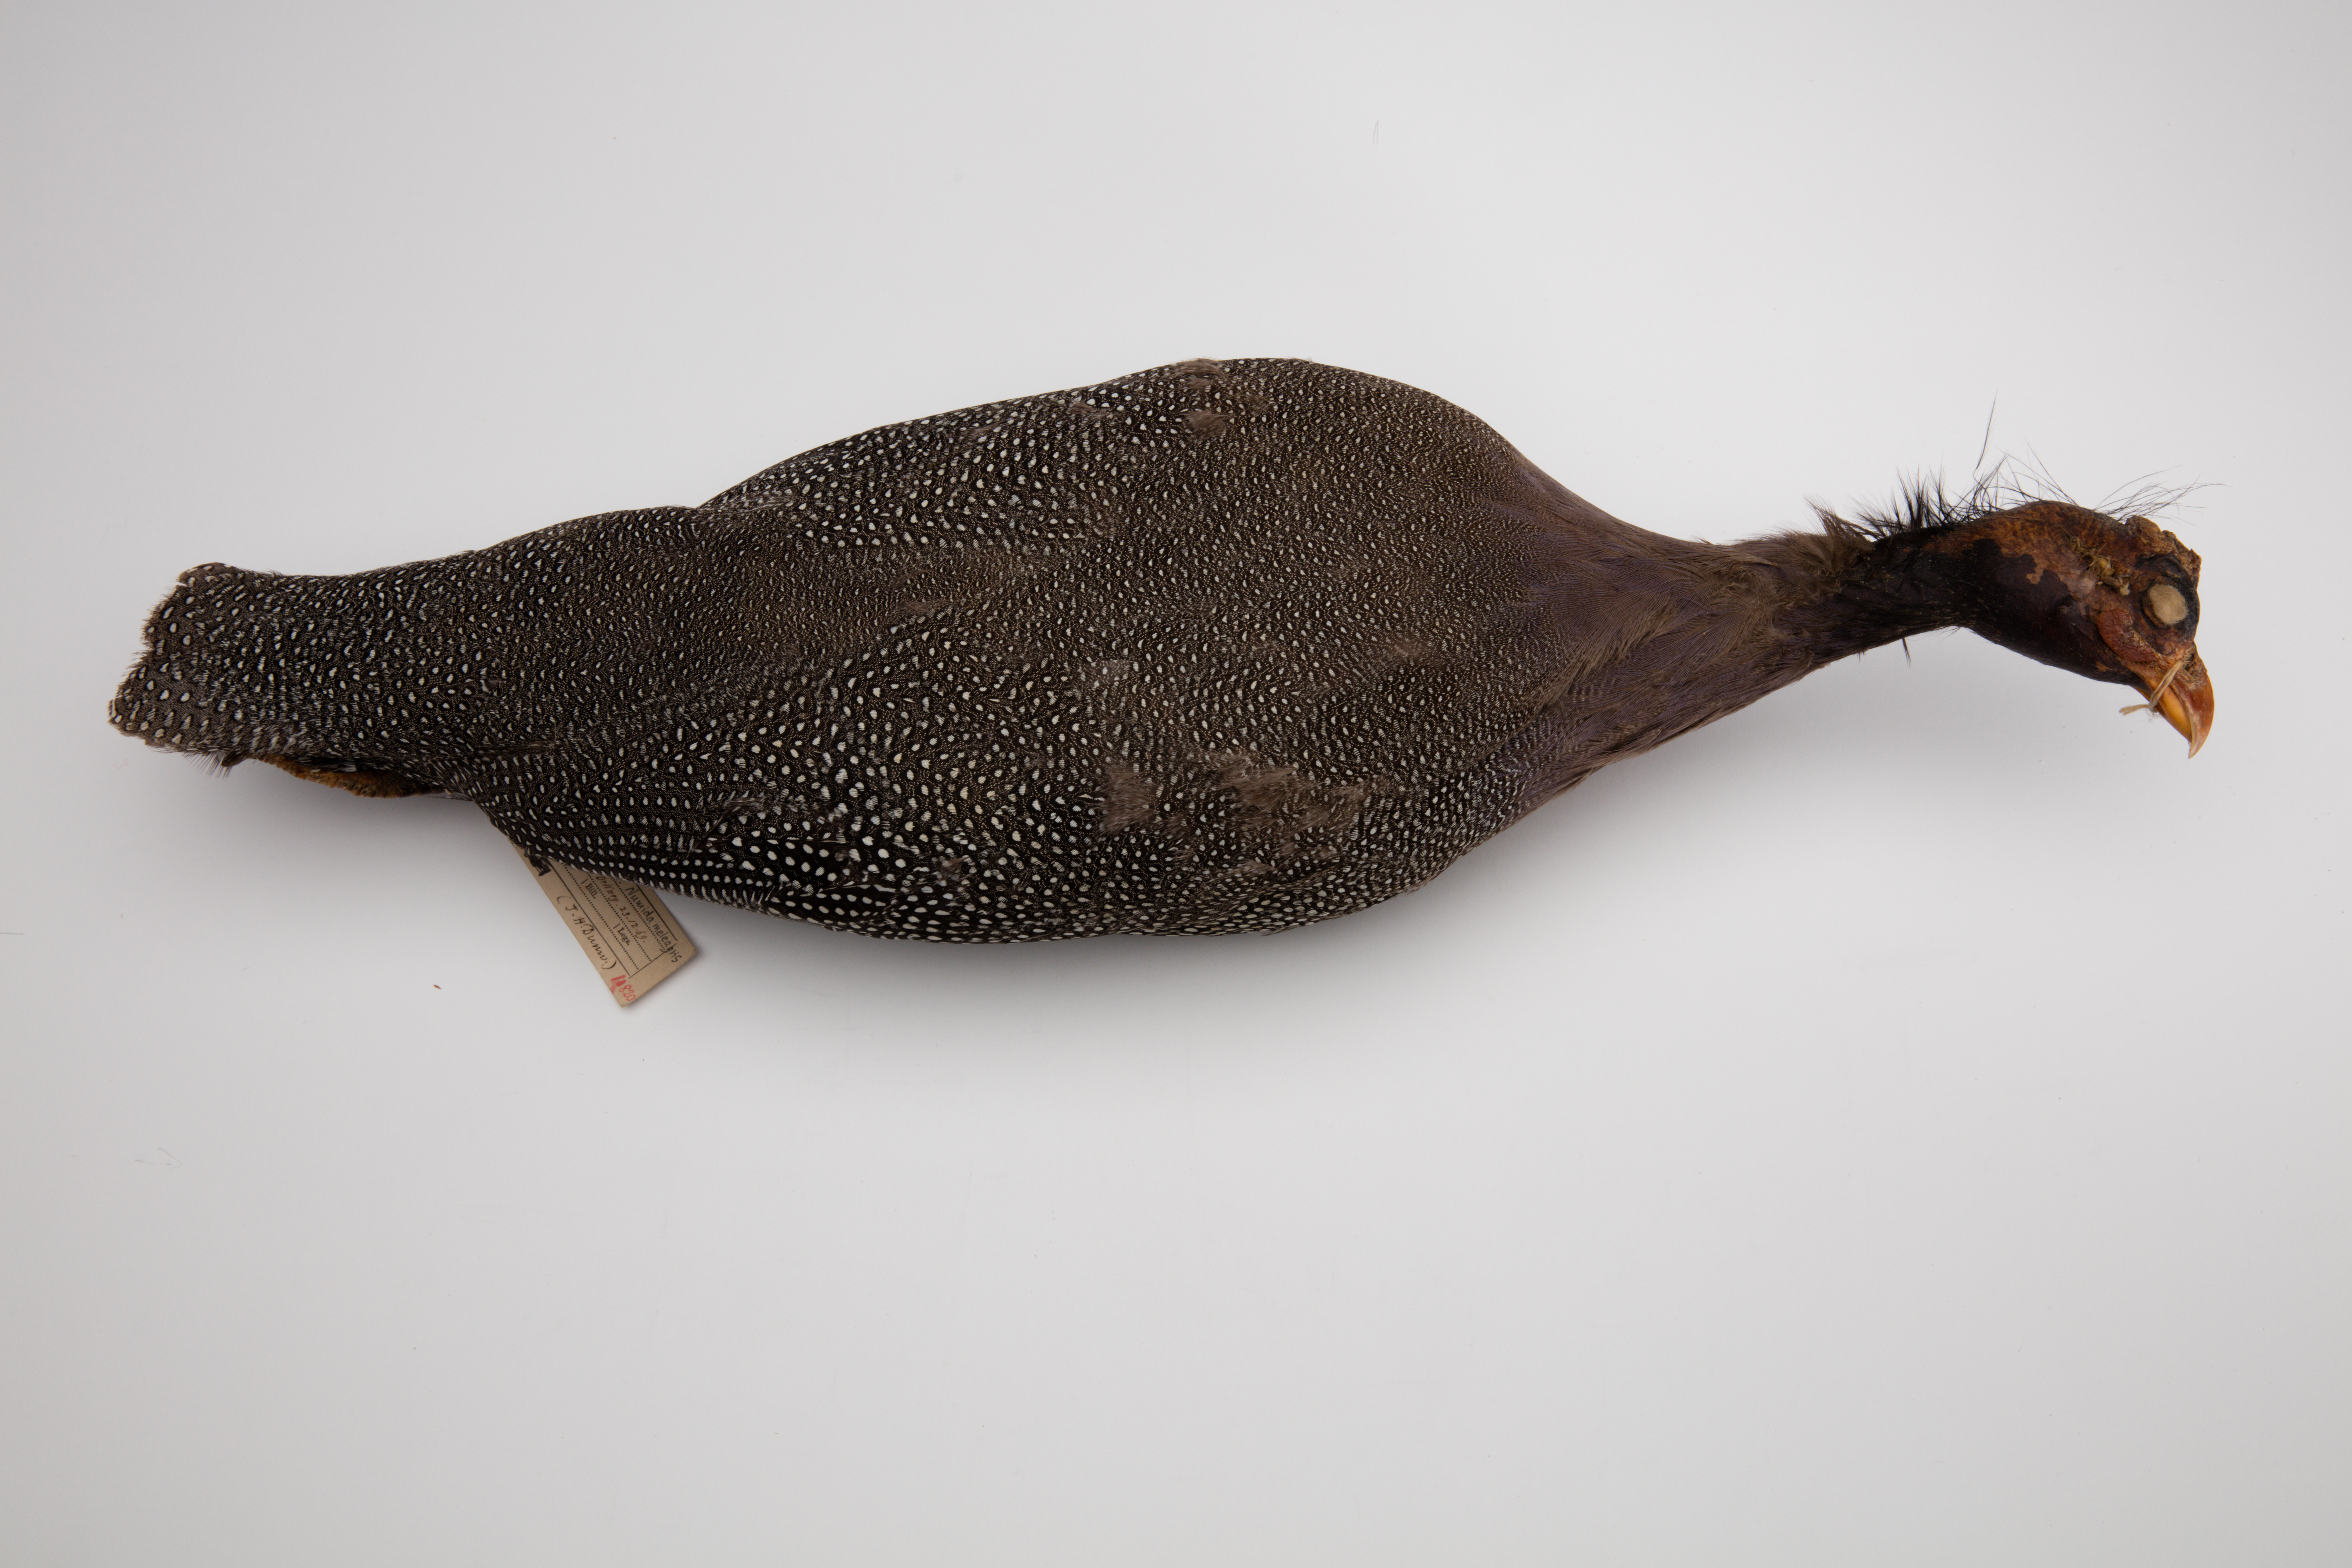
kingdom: Animalia
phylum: Chordata
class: Aves
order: Galliformes
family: Numididae
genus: Numida
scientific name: Numida meleagris
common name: Helmeted guineafowl
